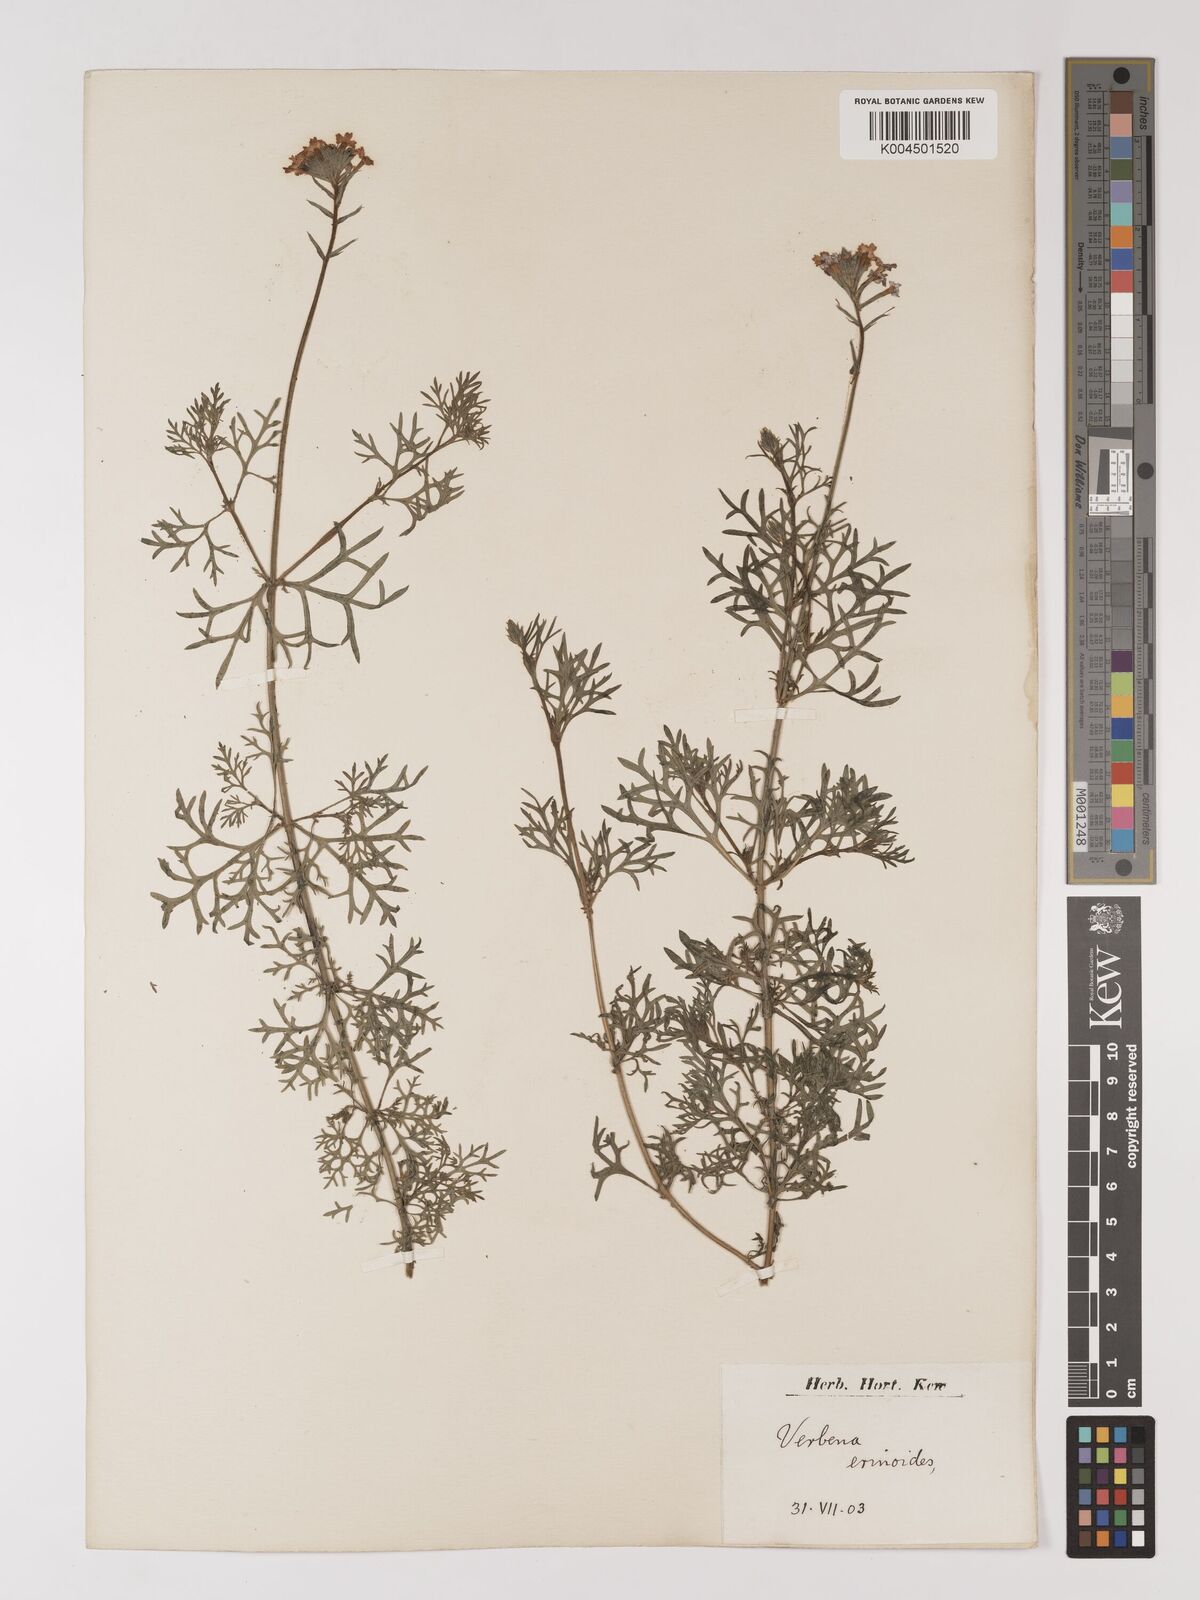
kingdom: Plantae
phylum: Tracheophyta
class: Magnoliopsida
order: Lamiales
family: Verbenaceae
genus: Verbena
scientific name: Verbena aristigera
